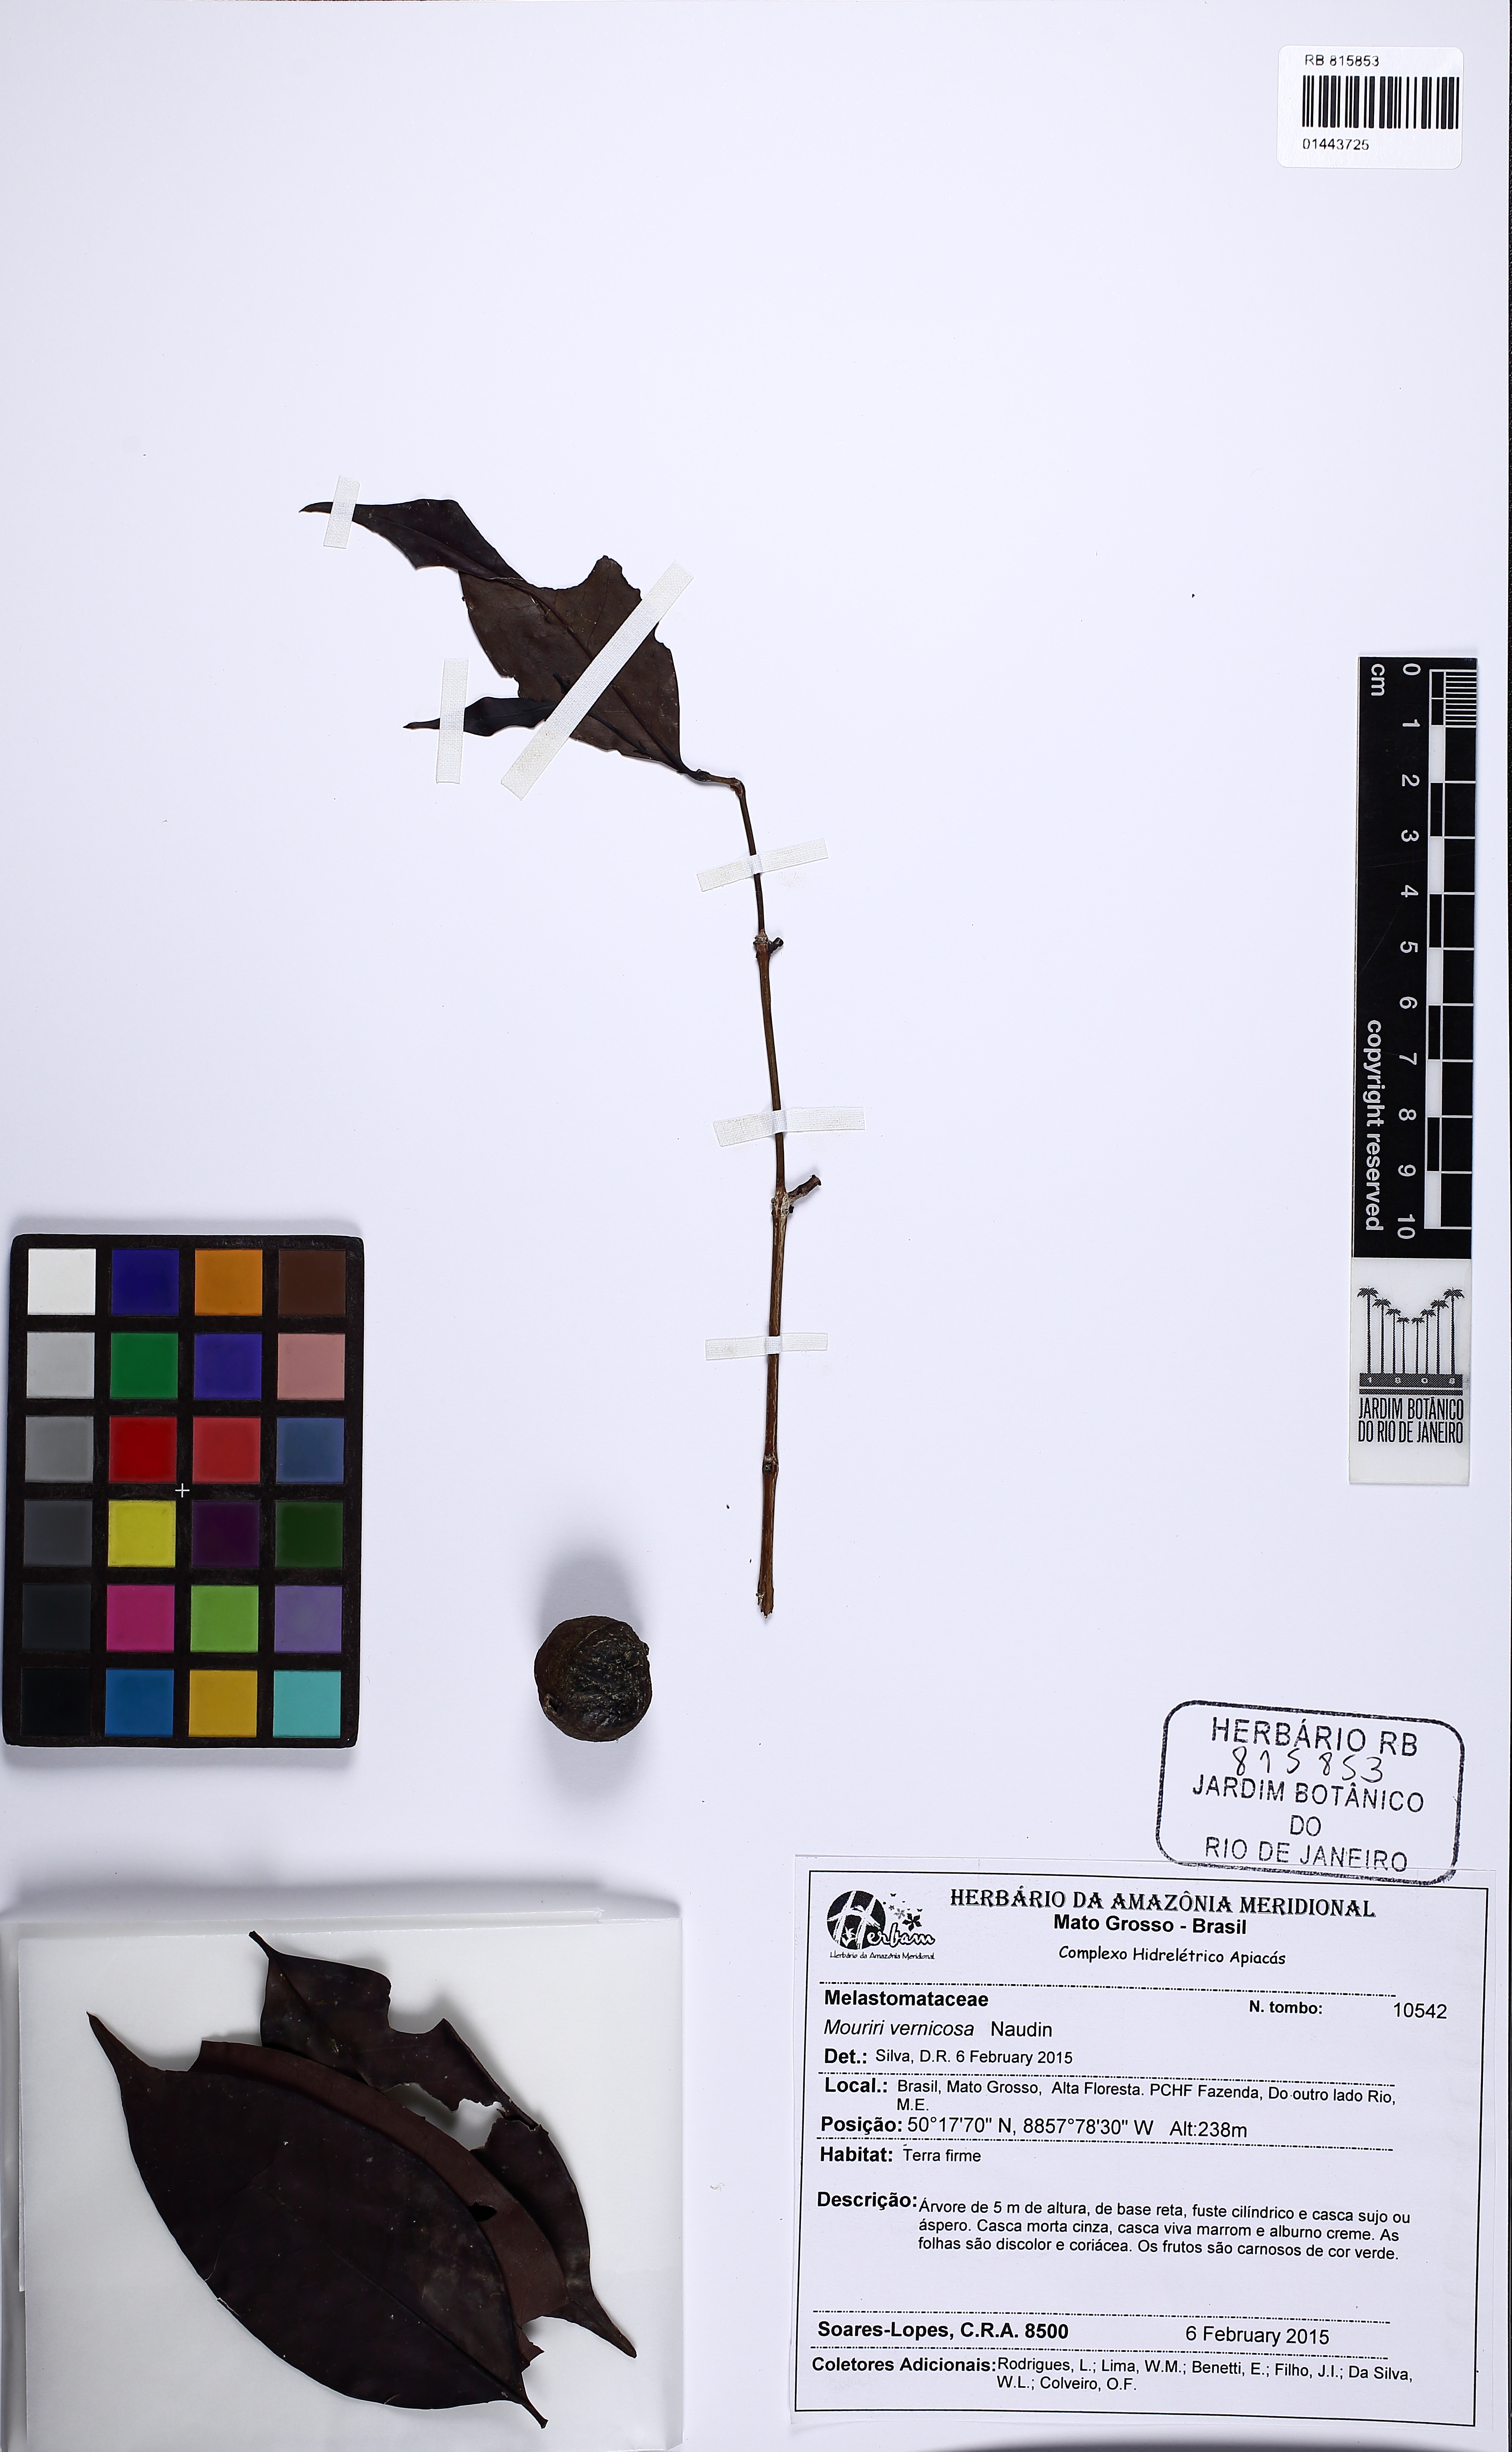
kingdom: Plantae
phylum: Tracheophyta
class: Magnoliopsida
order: Myrtales
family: Melastomataceae
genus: Mouriri
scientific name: Mouriri vernicosa
